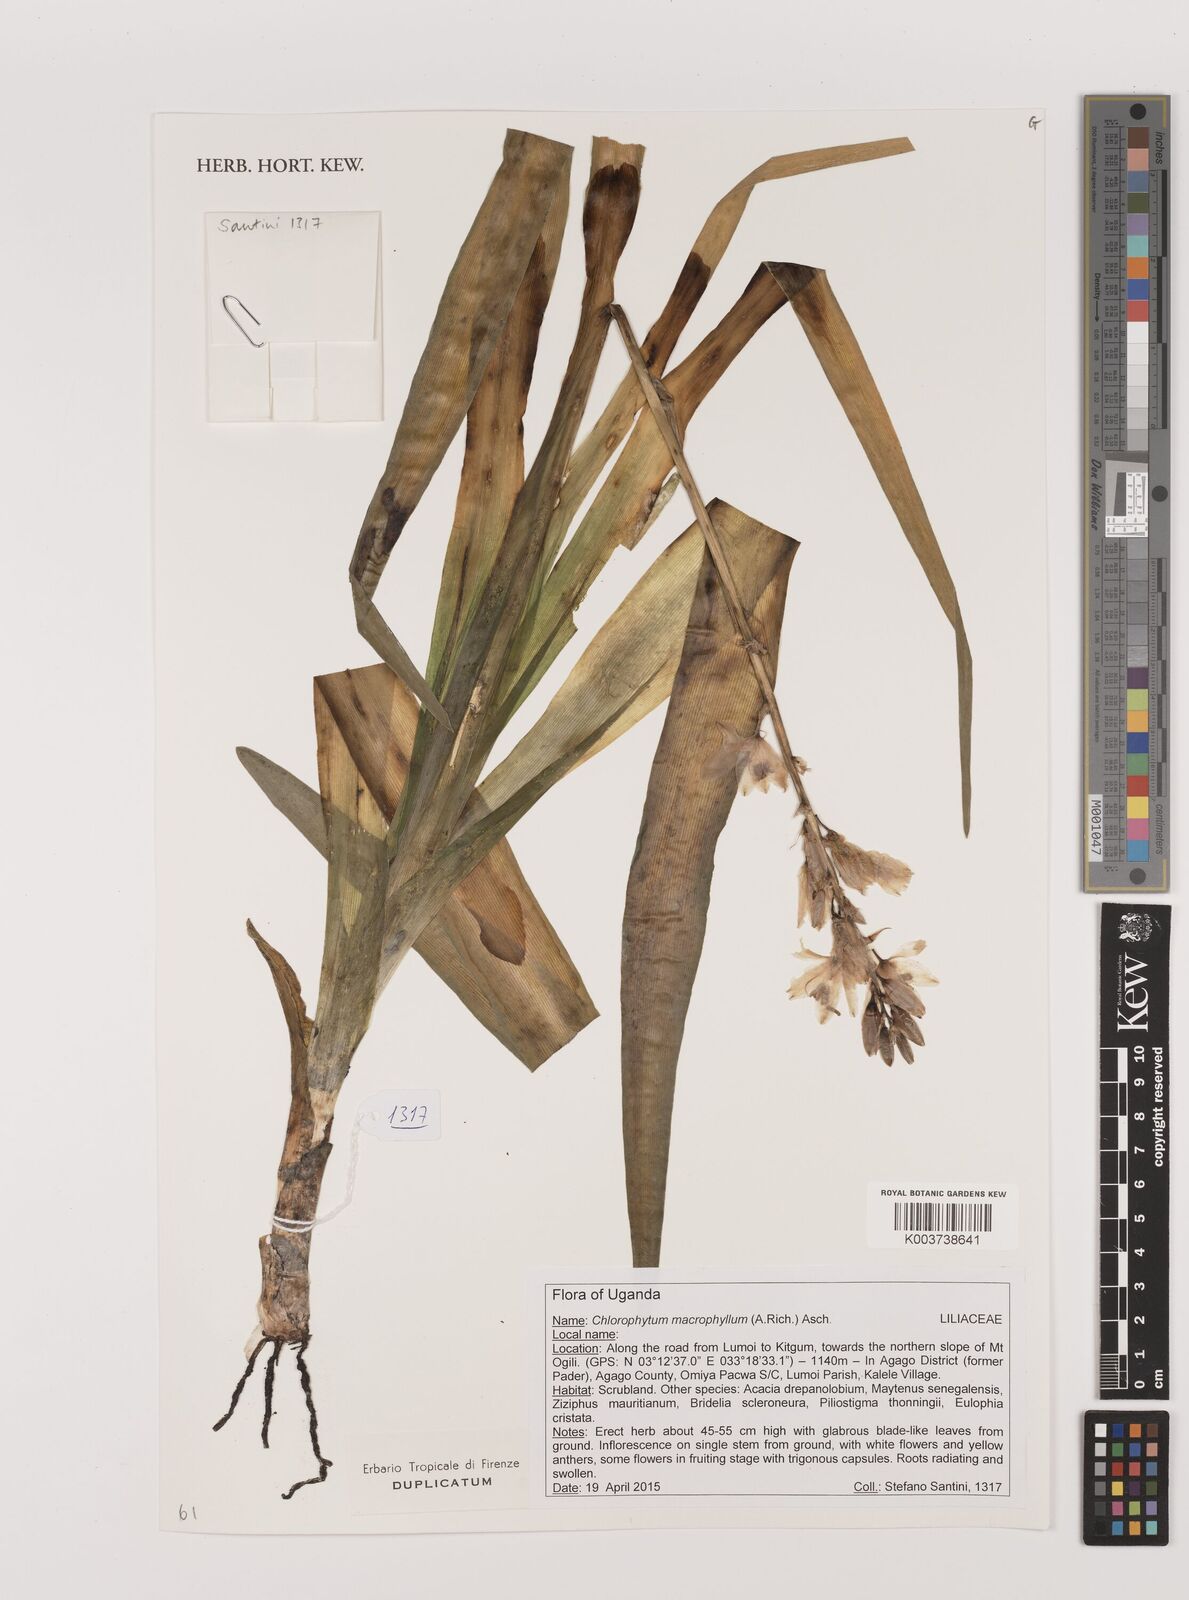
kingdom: Plantae
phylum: Tracheophyta
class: Liliopsida
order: Asparagales
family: Asparagaceae
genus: Chlorophytum
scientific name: Chlorophytum macrophyllum
